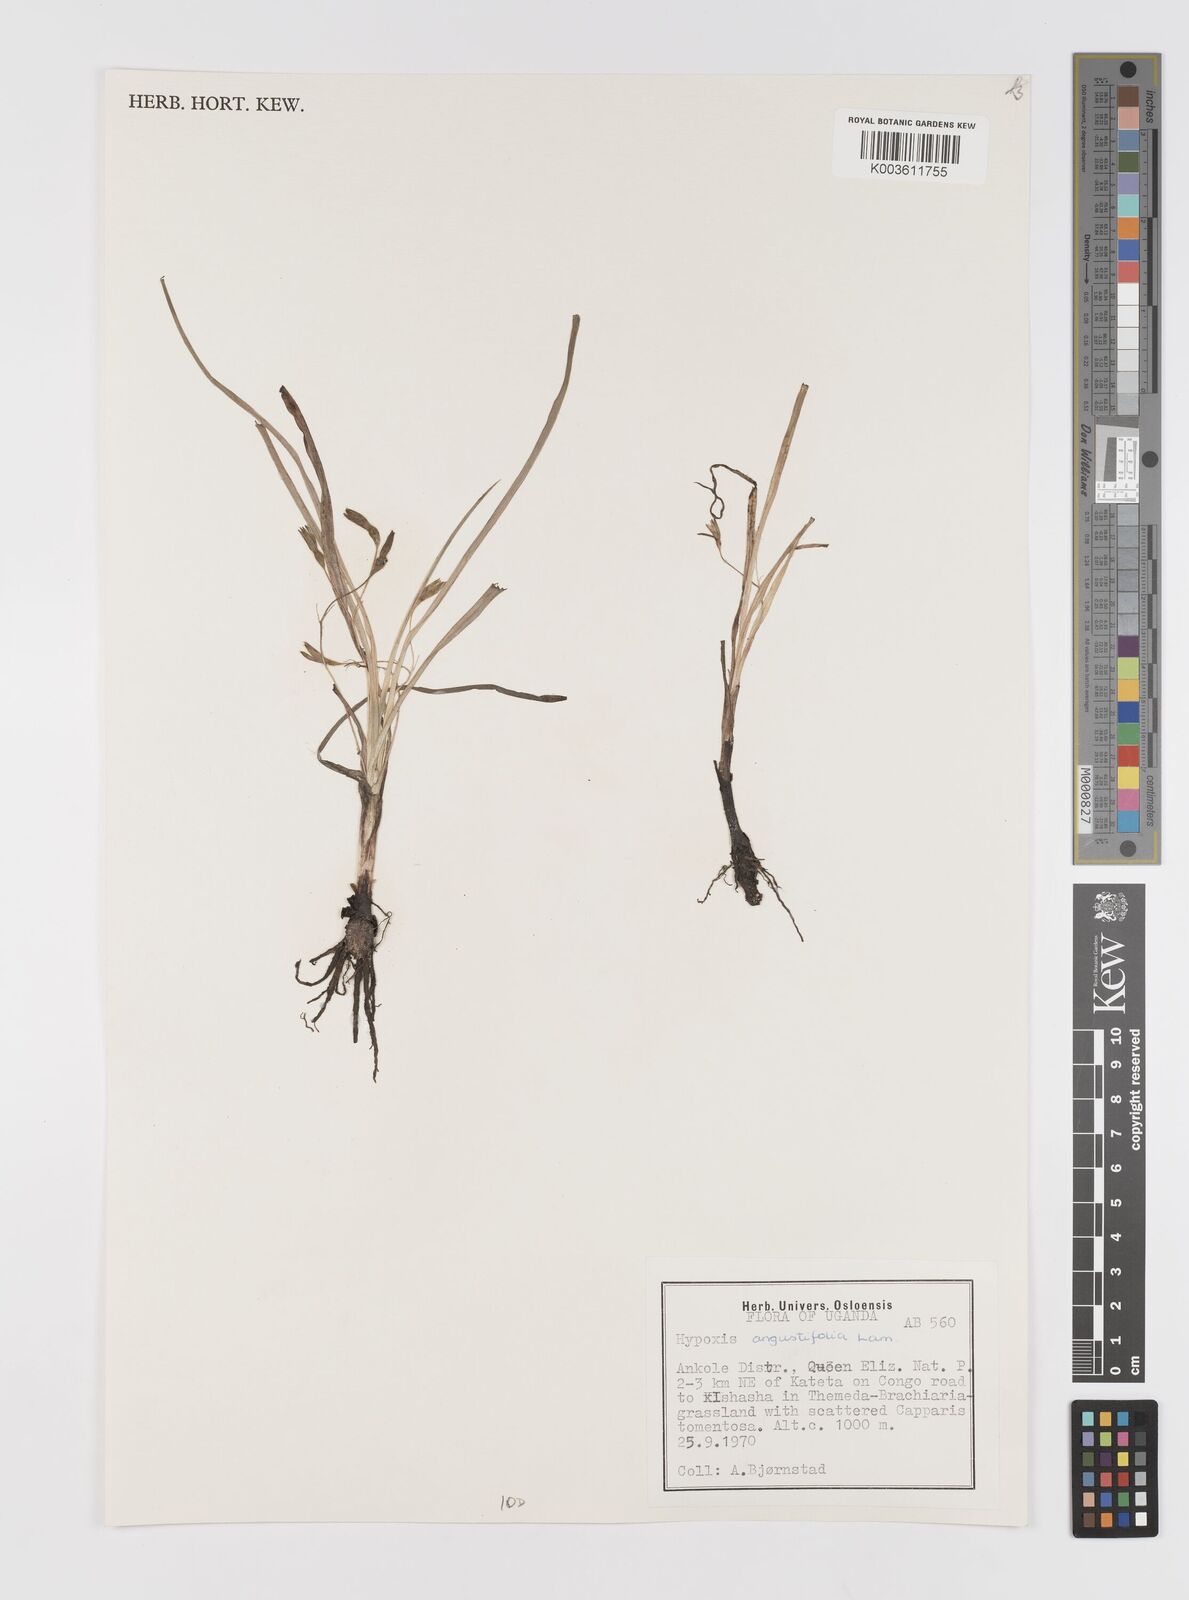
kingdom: Plantae
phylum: Tracheophyta
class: Liliopsida
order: Asparagales
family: Hypoxidaceae
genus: Hypoxis
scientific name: Hypoxis angustifolia
